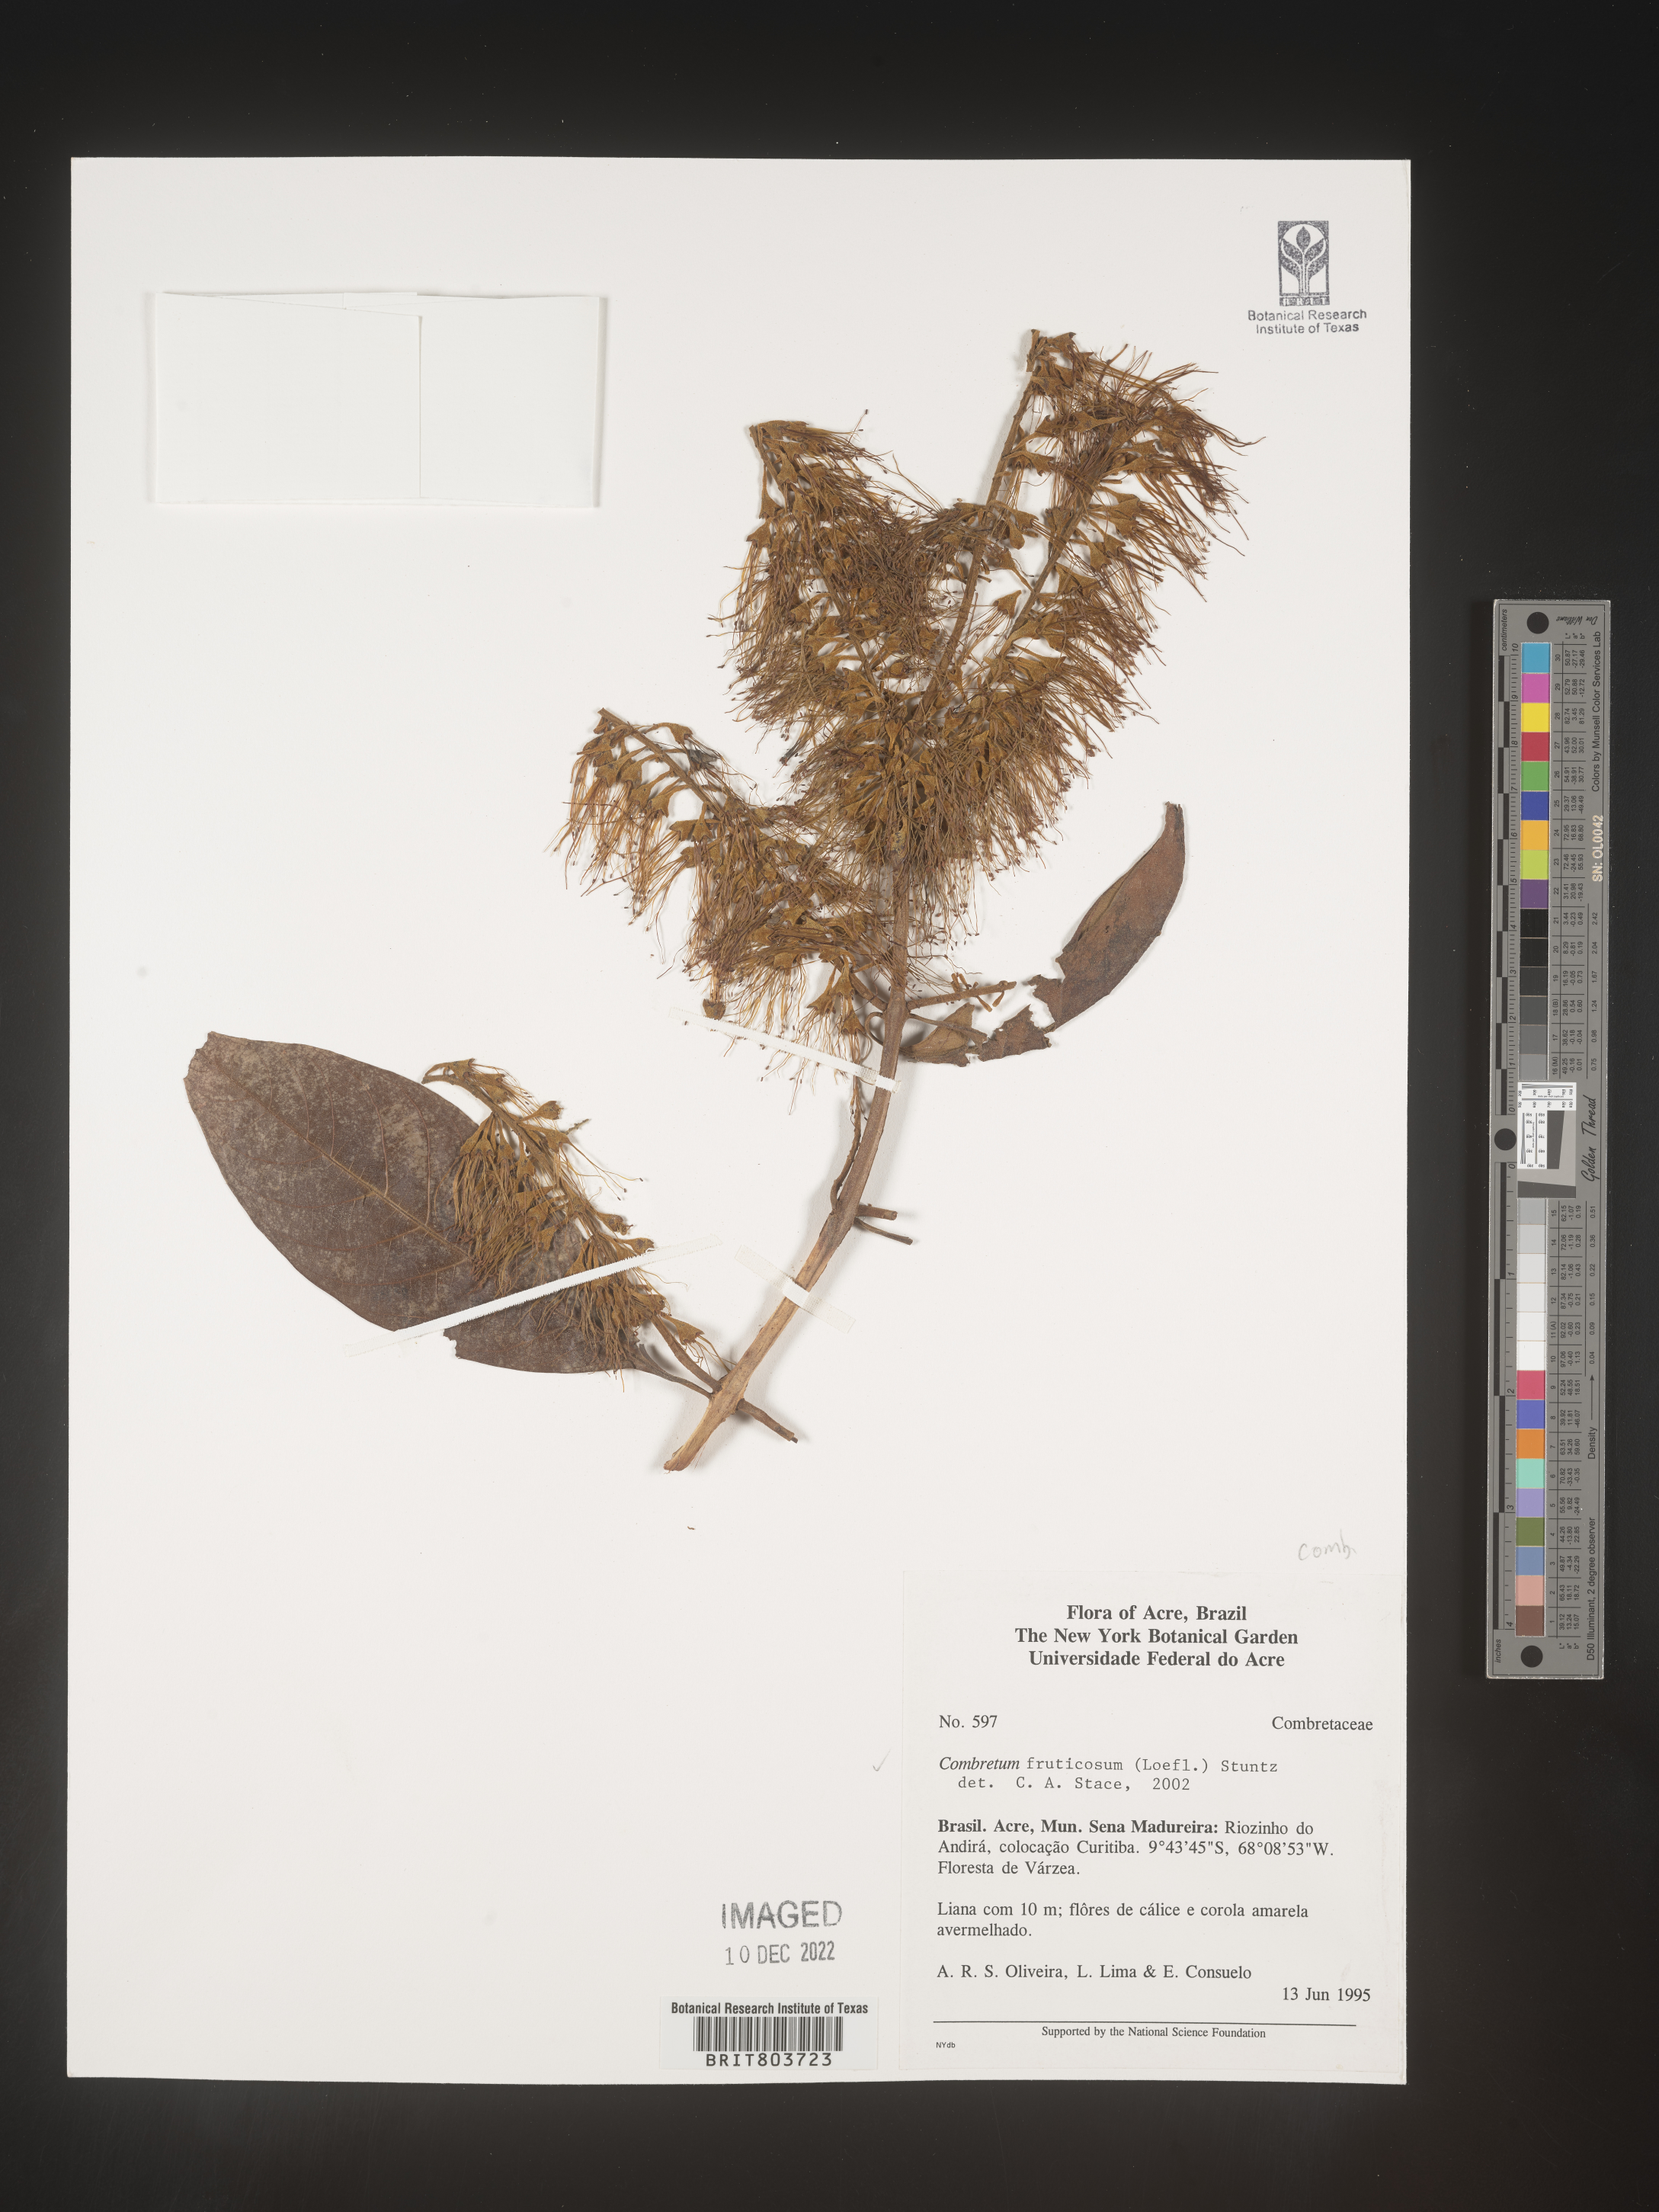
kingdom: Plantae
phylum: Tracheophyta
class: Magnoliopsida
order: Myrtales
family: Combretaceae
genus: Combretum
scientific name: Combretum
